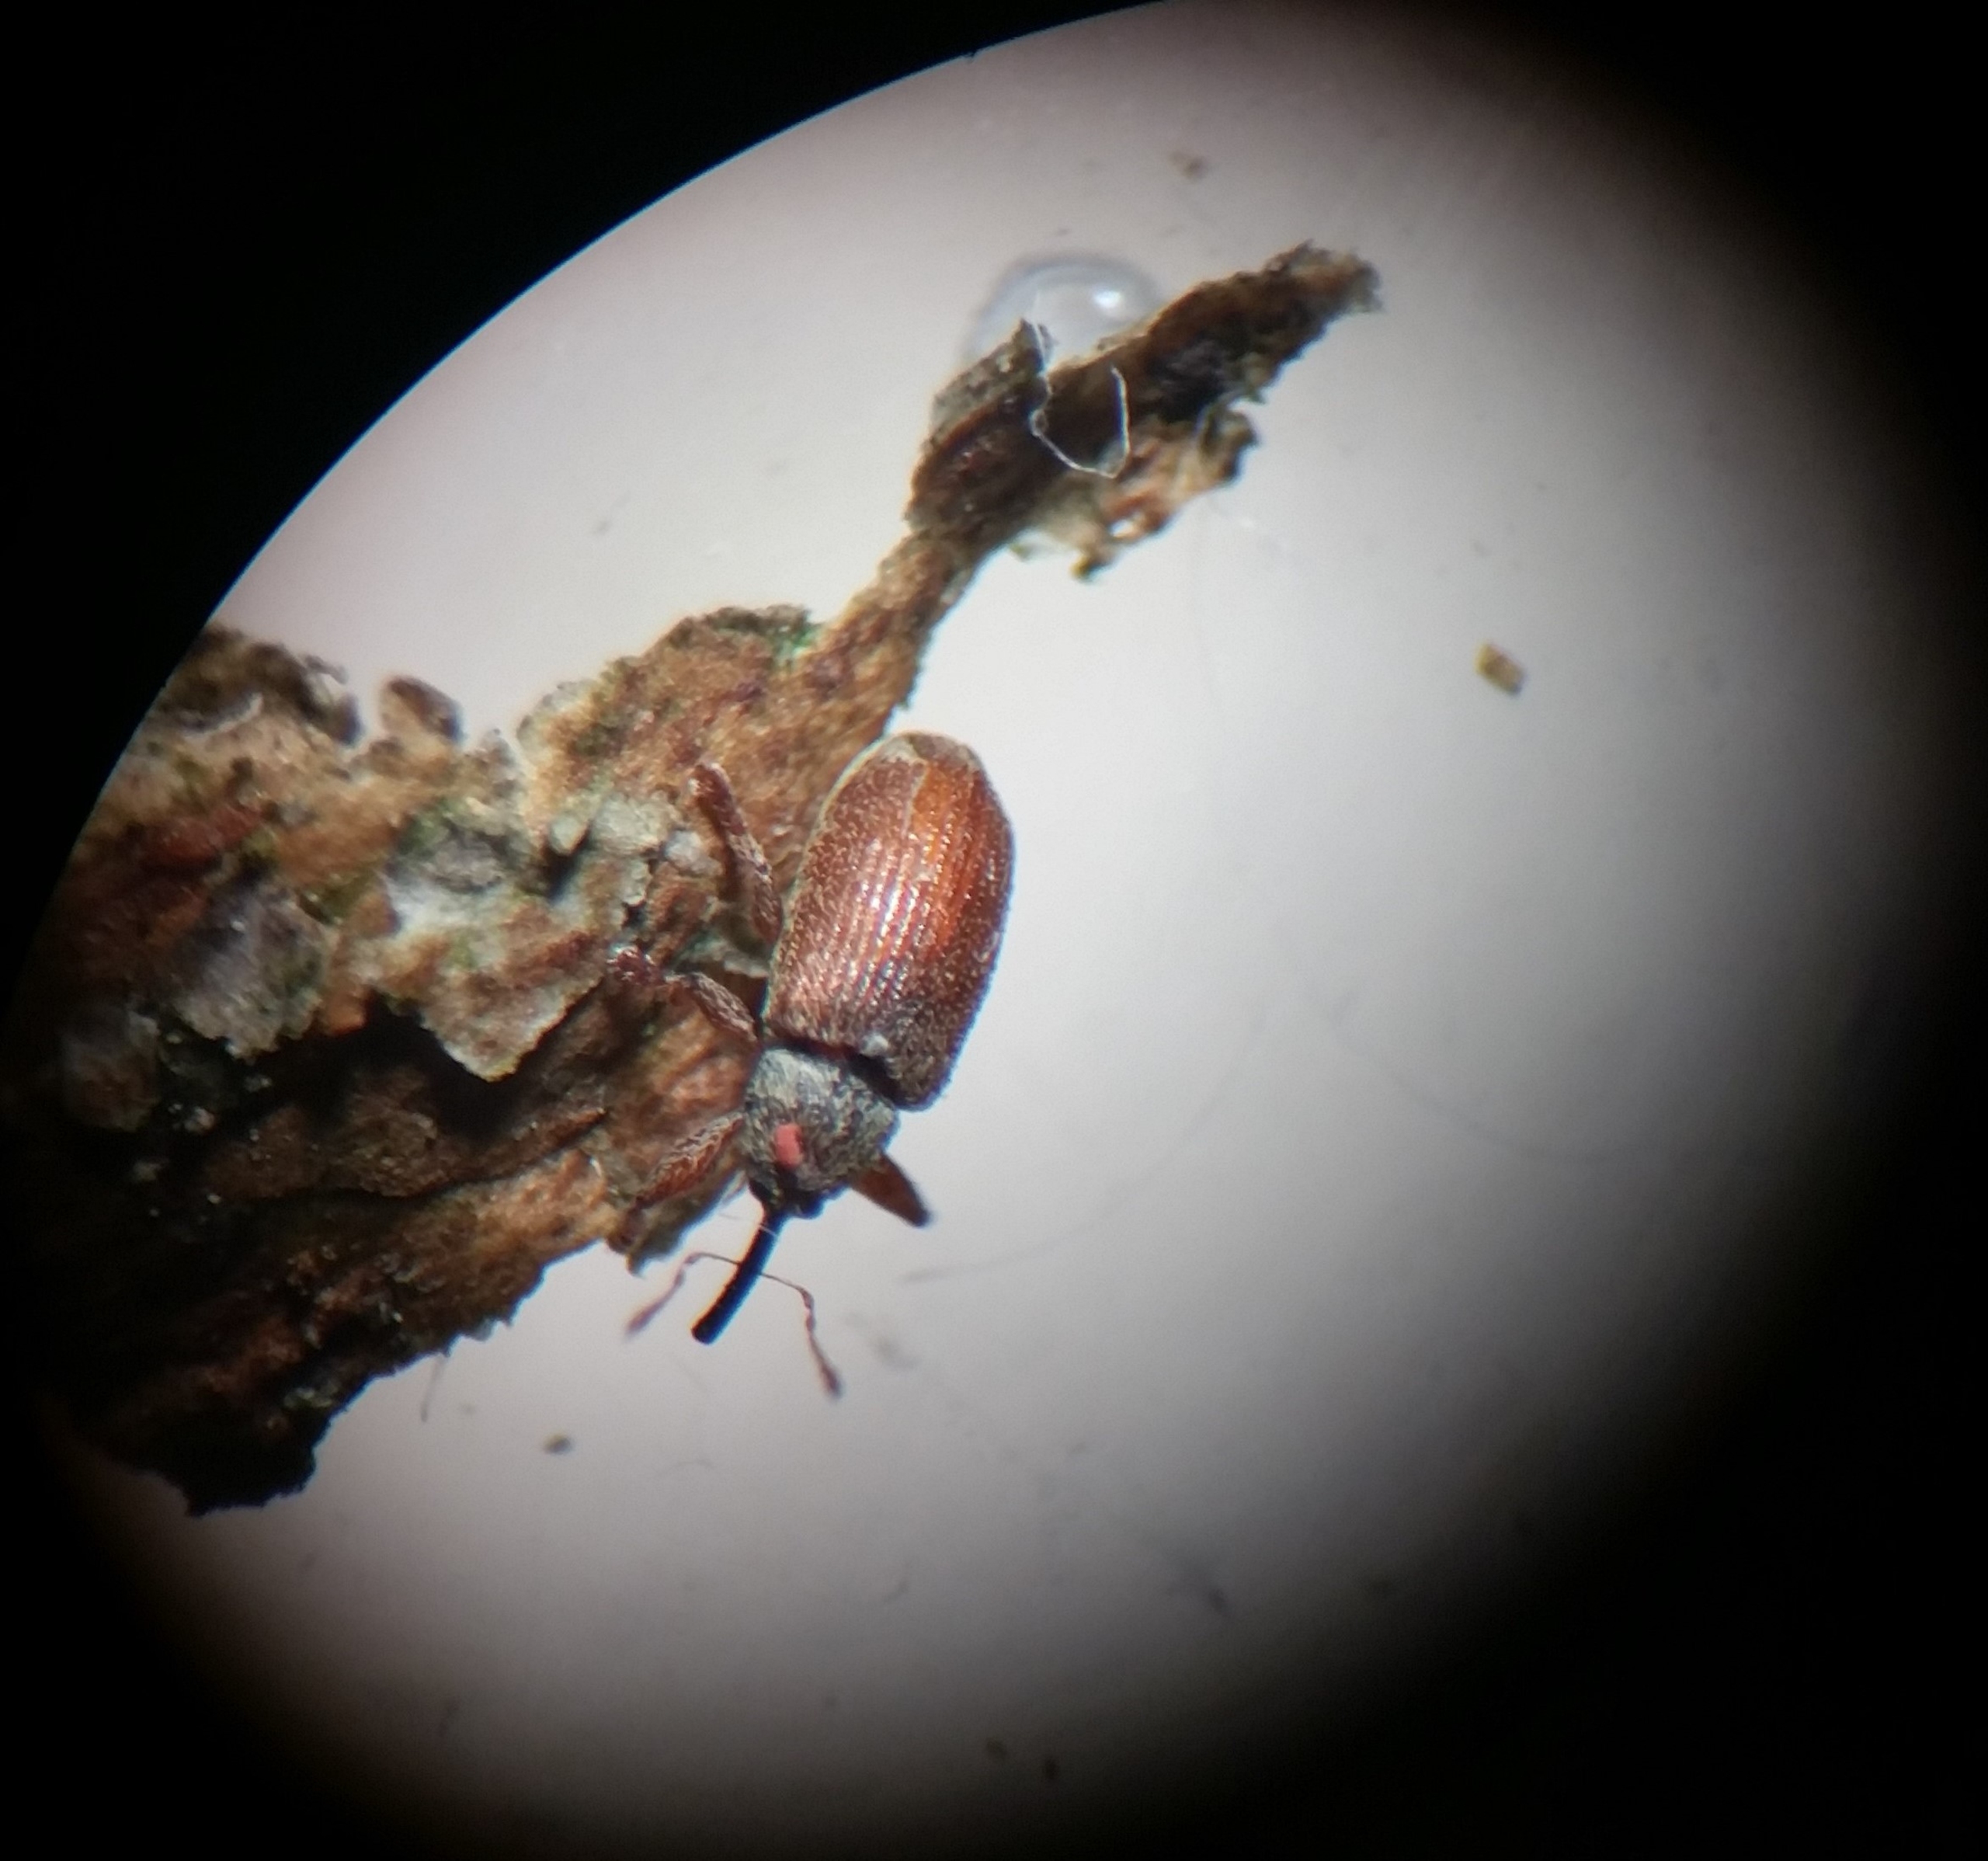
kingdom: Animalia
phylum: Arthropoda
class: Insecta
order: Coleoptera
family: Curculionidae
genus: Brachonyx
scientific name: Brachonyx pineti
